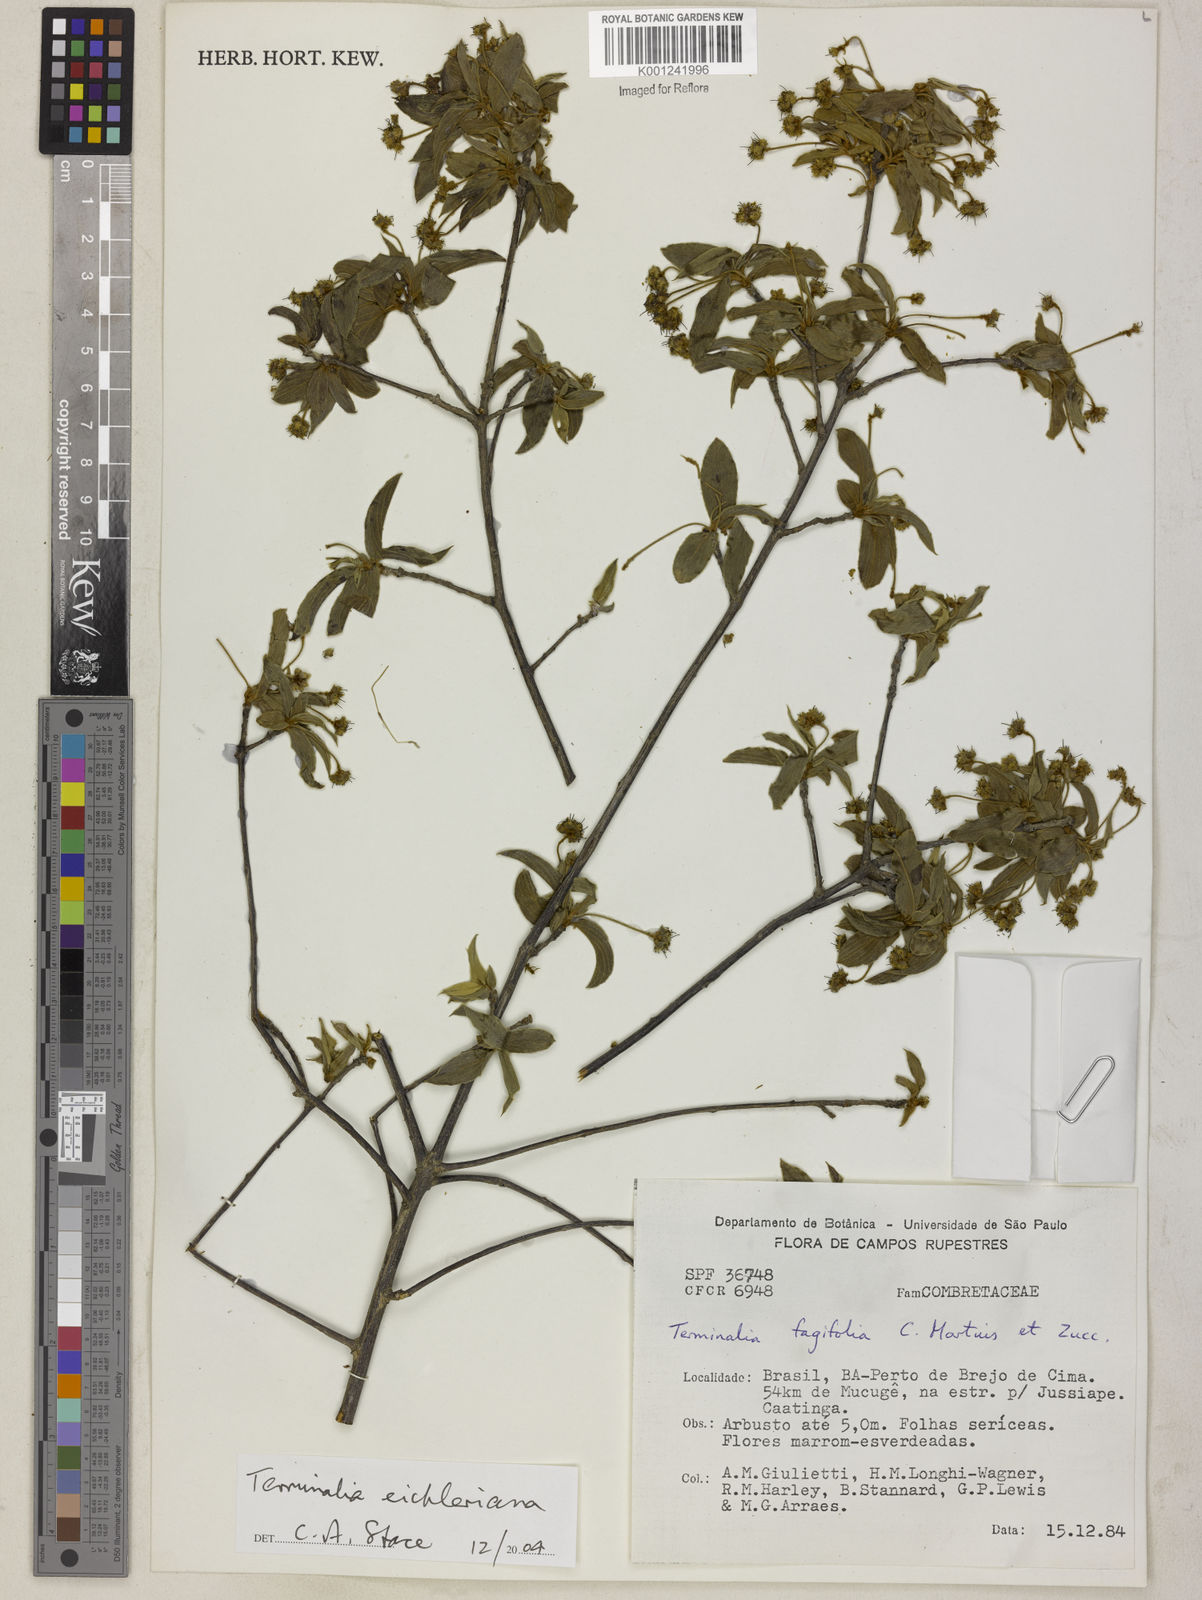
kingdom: Plantae
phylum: Tracheophyta
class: Magnoliopsida
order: Myrtales
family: Combretaceae
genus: Terminalia
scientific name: Terminalia eichleriana
